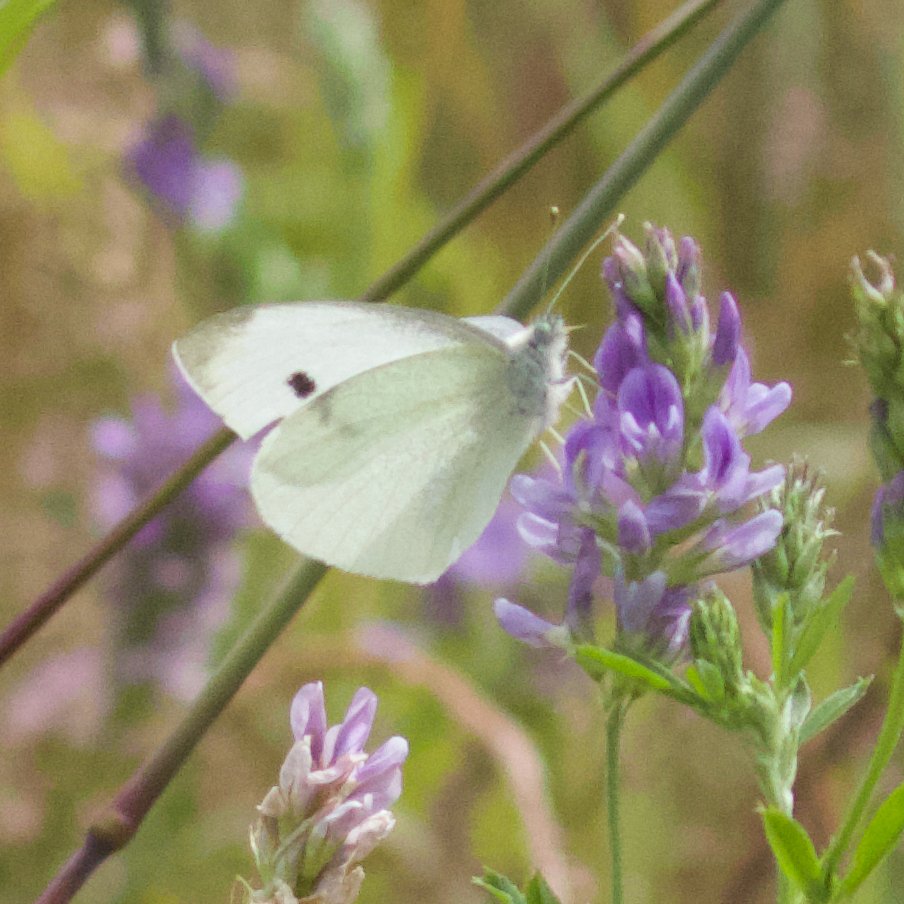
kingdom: Animalia
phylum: Arthropoda
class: Insecta
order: Lepidoptera
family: Pieridae
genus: Pieris
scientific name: Pieris rapae
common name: Cabbage White
